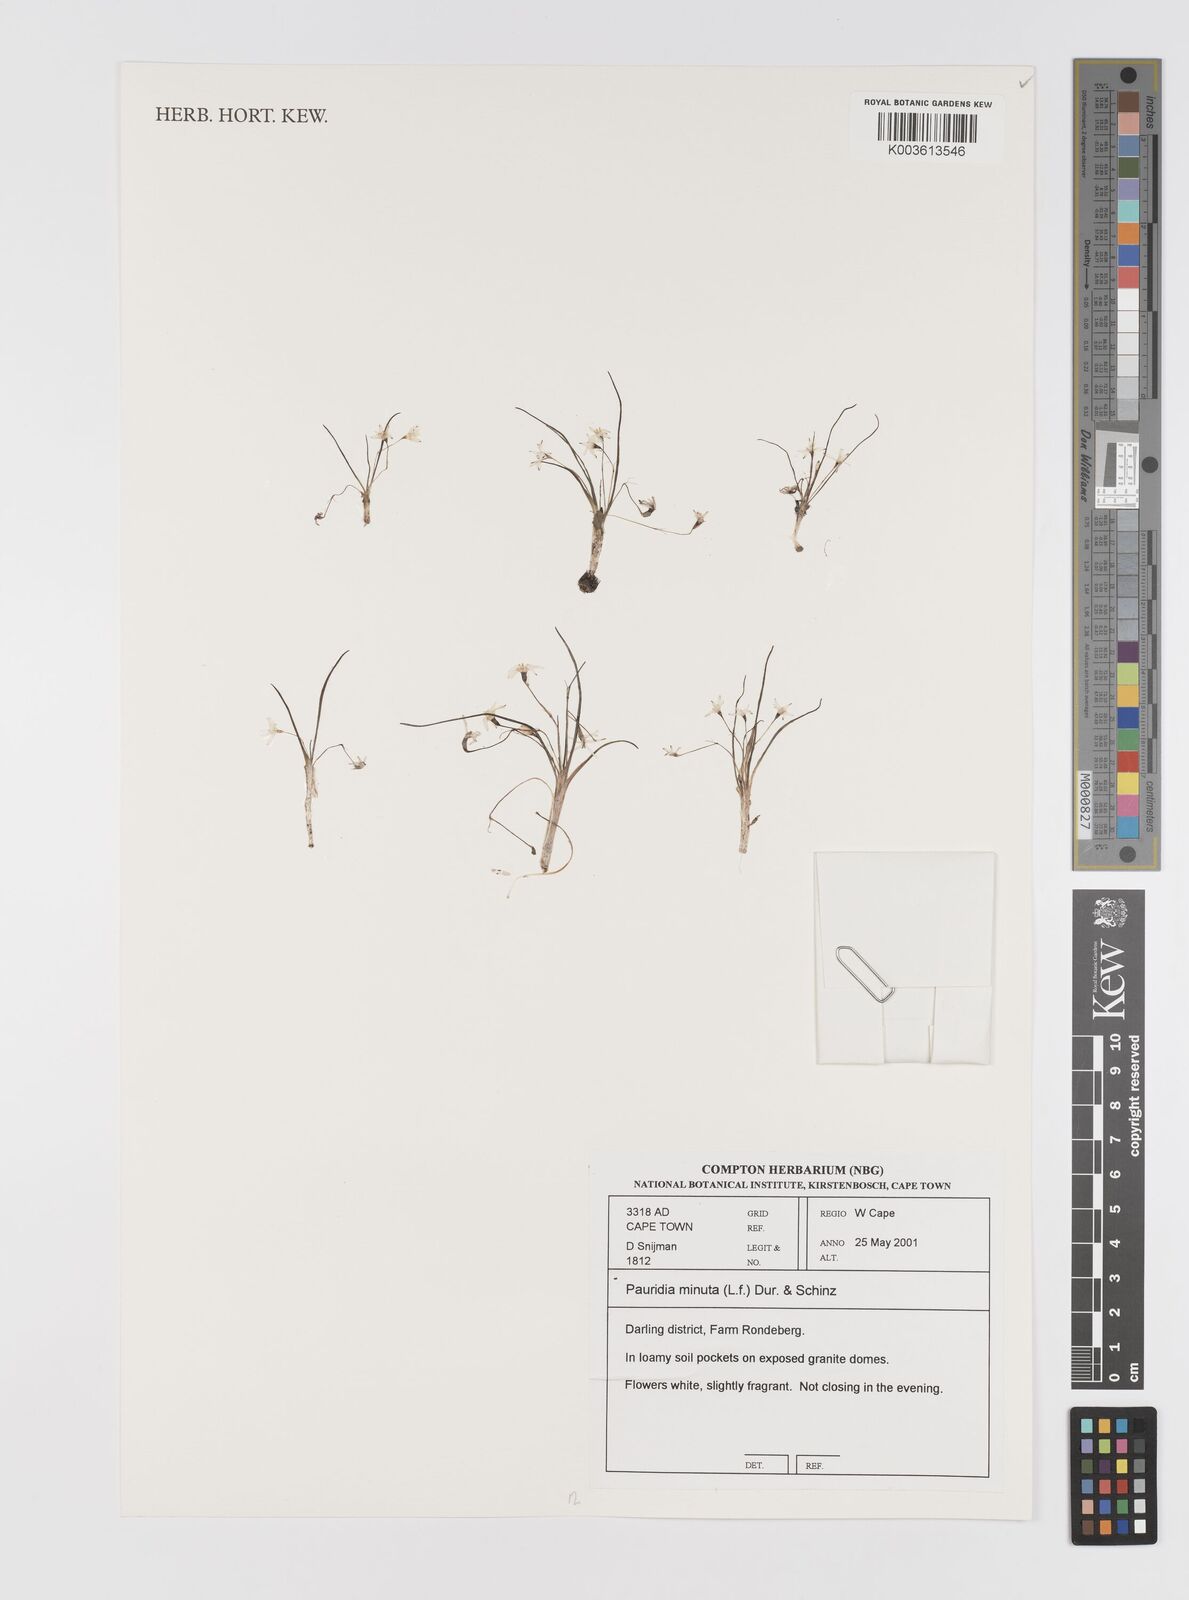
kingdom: Plantae
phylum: Tracheophyta
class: Liliopsida
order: Asparagales
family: Hypoxidaceae
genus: Pauridia
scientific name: Pauridia minuta
